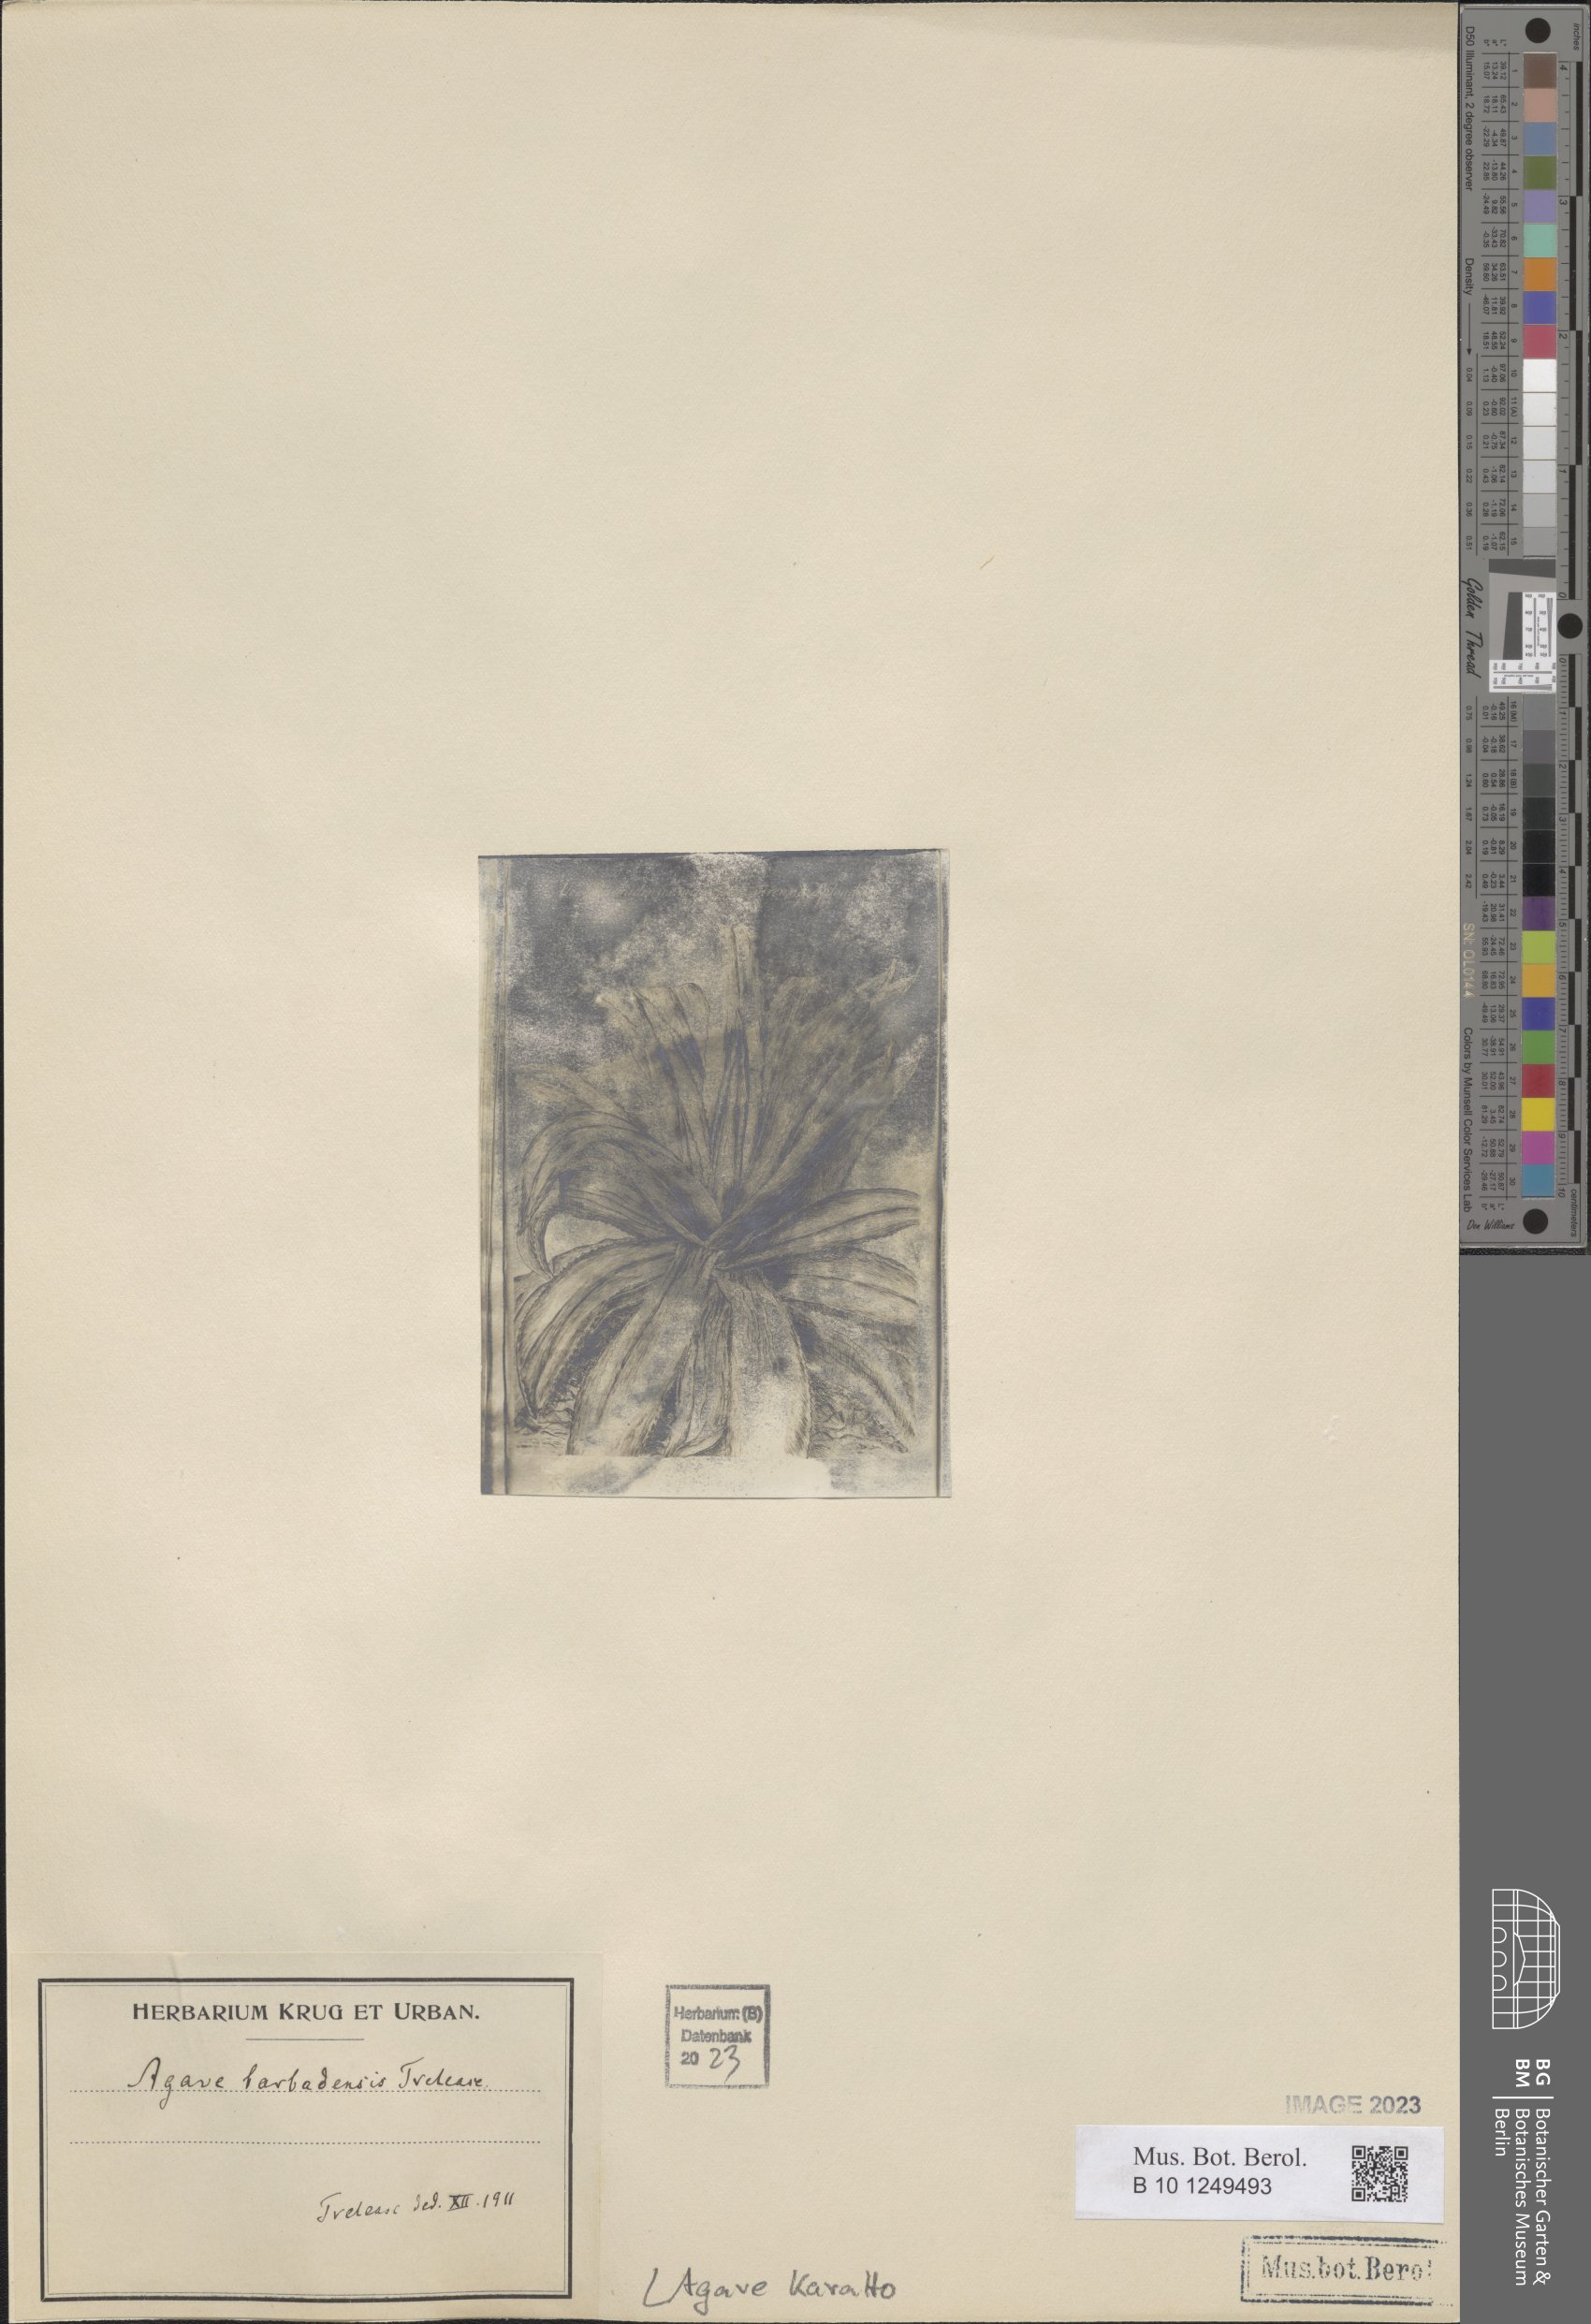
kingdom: Plantae
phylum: Tracheophyta
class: Liliopsida
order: Asparagales
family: Asparagaceae
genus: Agave
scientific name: Agave karatto
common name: Century plant
